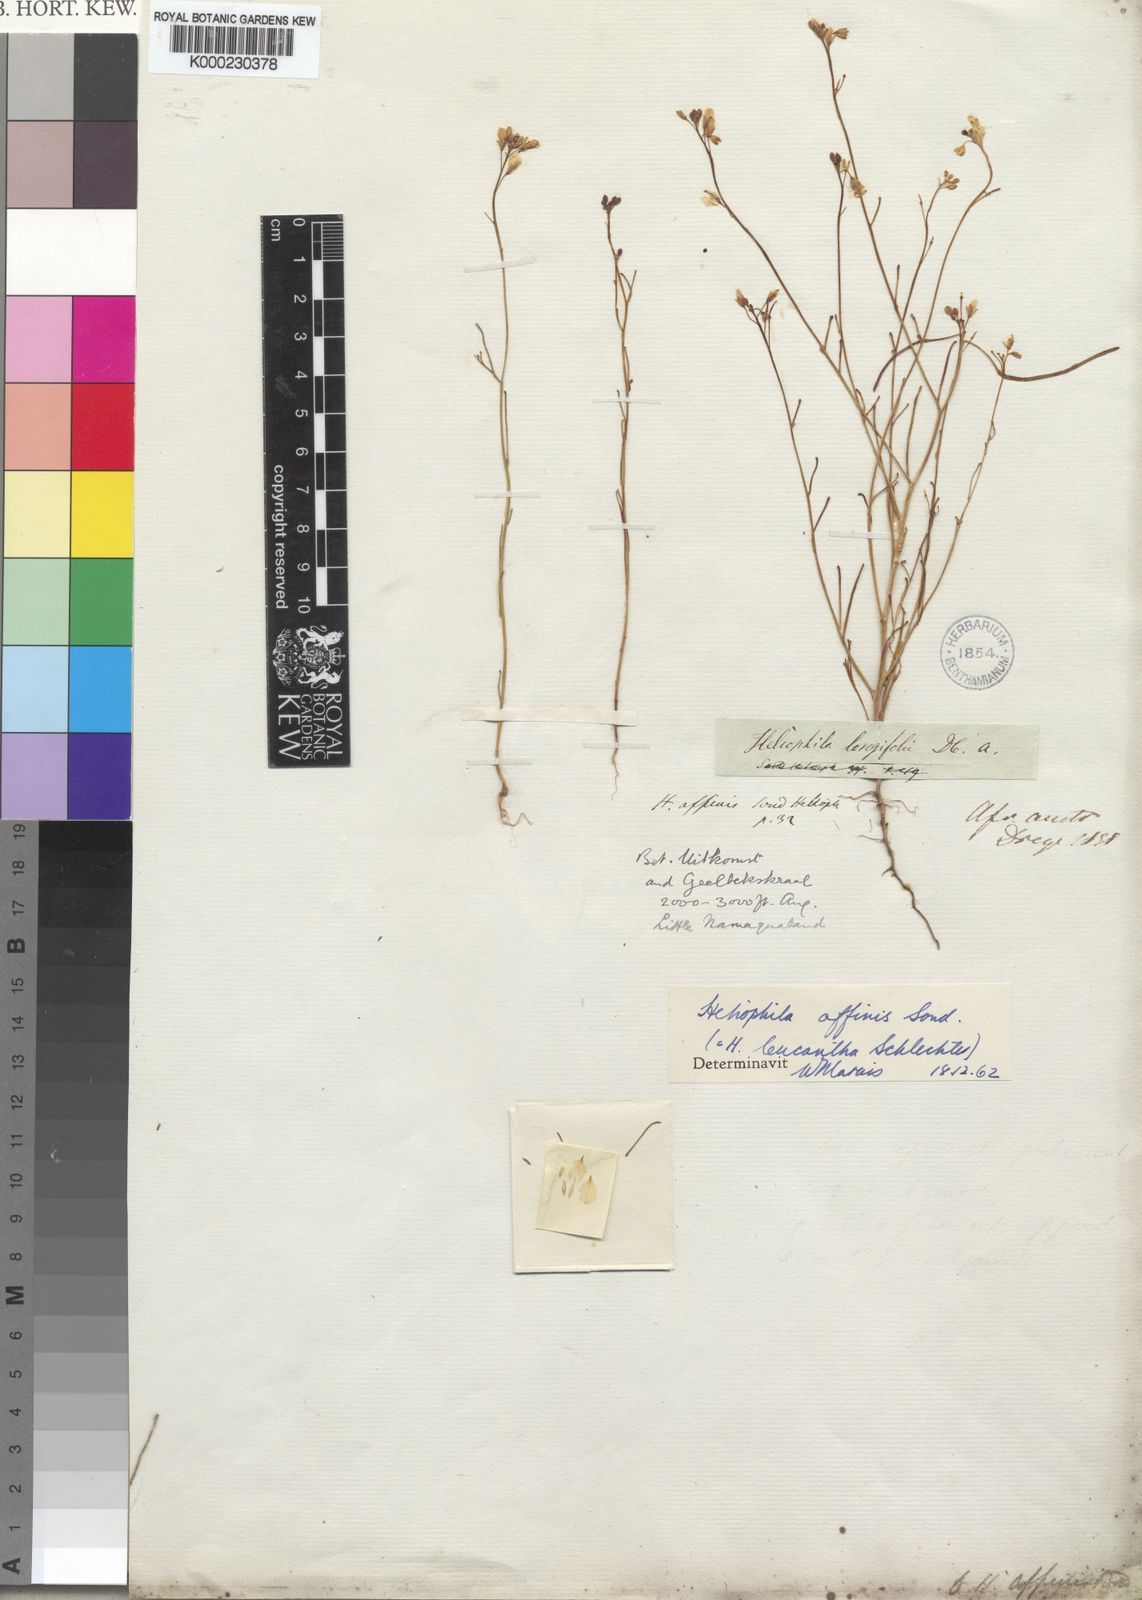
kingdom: Plantae
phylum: Tracheophyta
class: Magnoliopsida
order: Brassicales
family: Brassicaceae
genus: Heliophila
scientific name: Heliophila affinis
